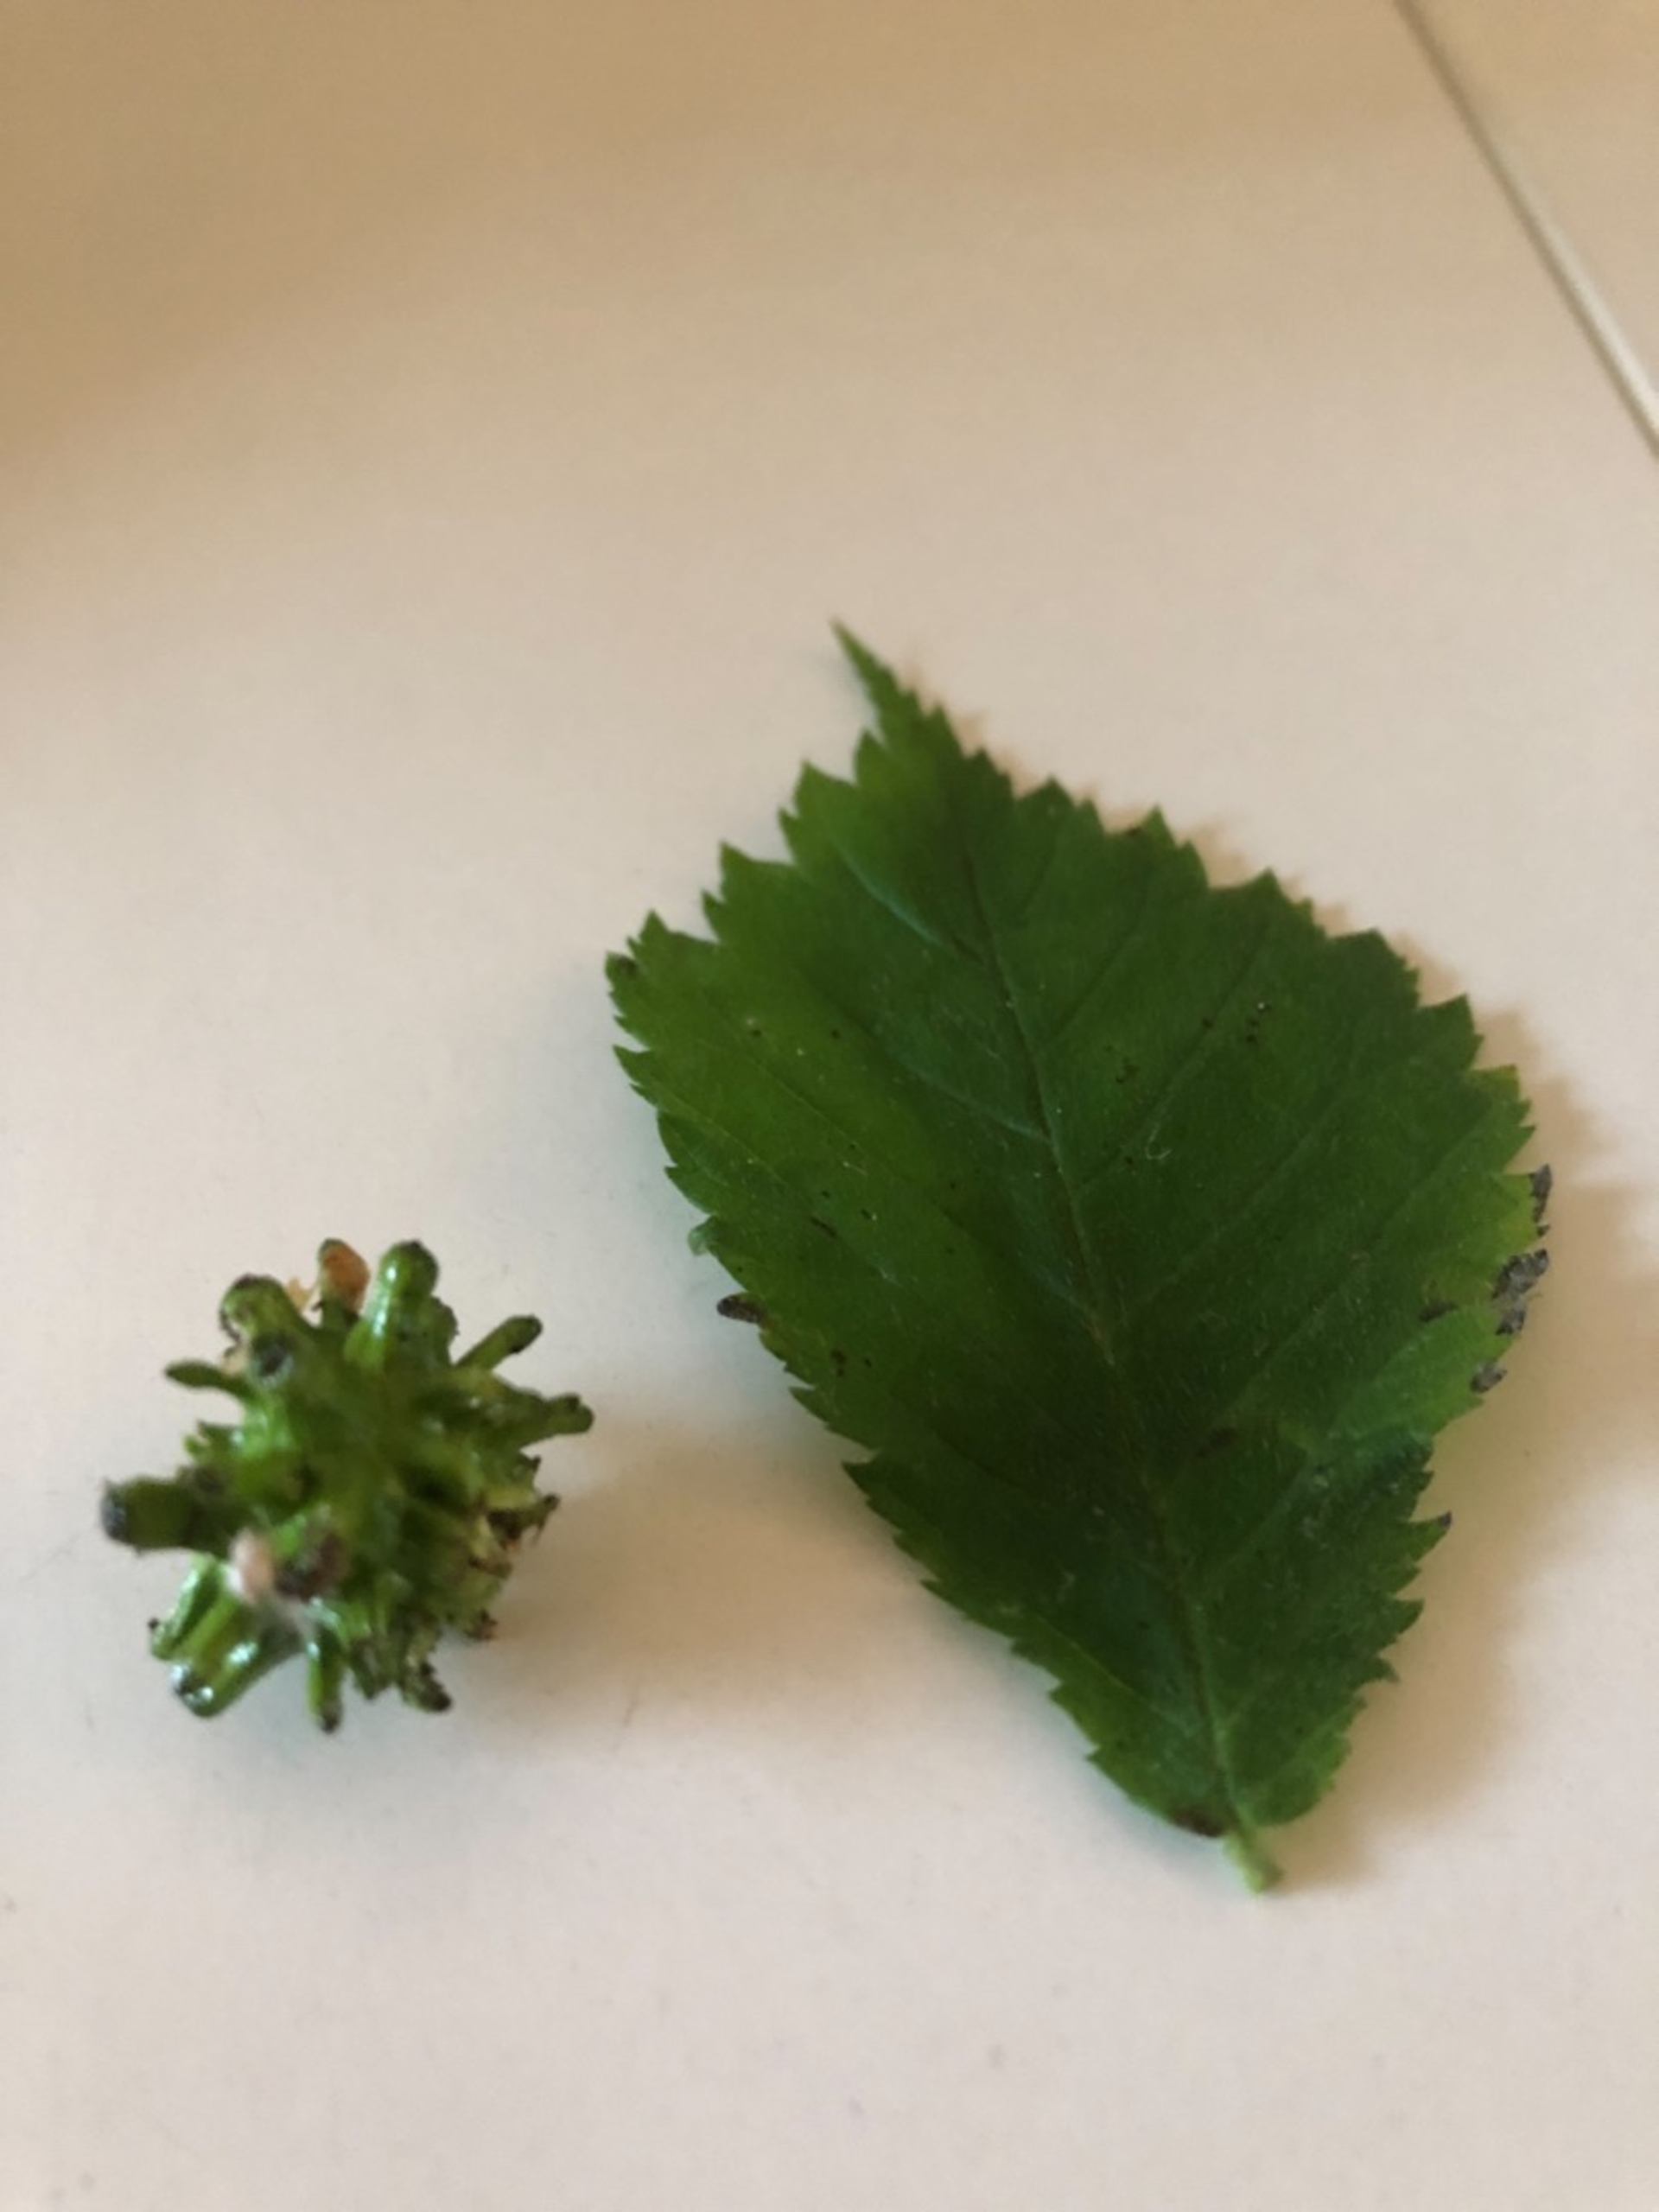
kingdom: Animalia
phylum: Arthropoda
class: Insecta
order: Hymenoptera
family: Cynipidae
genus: Andricus
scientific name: Andricus grossulariae
